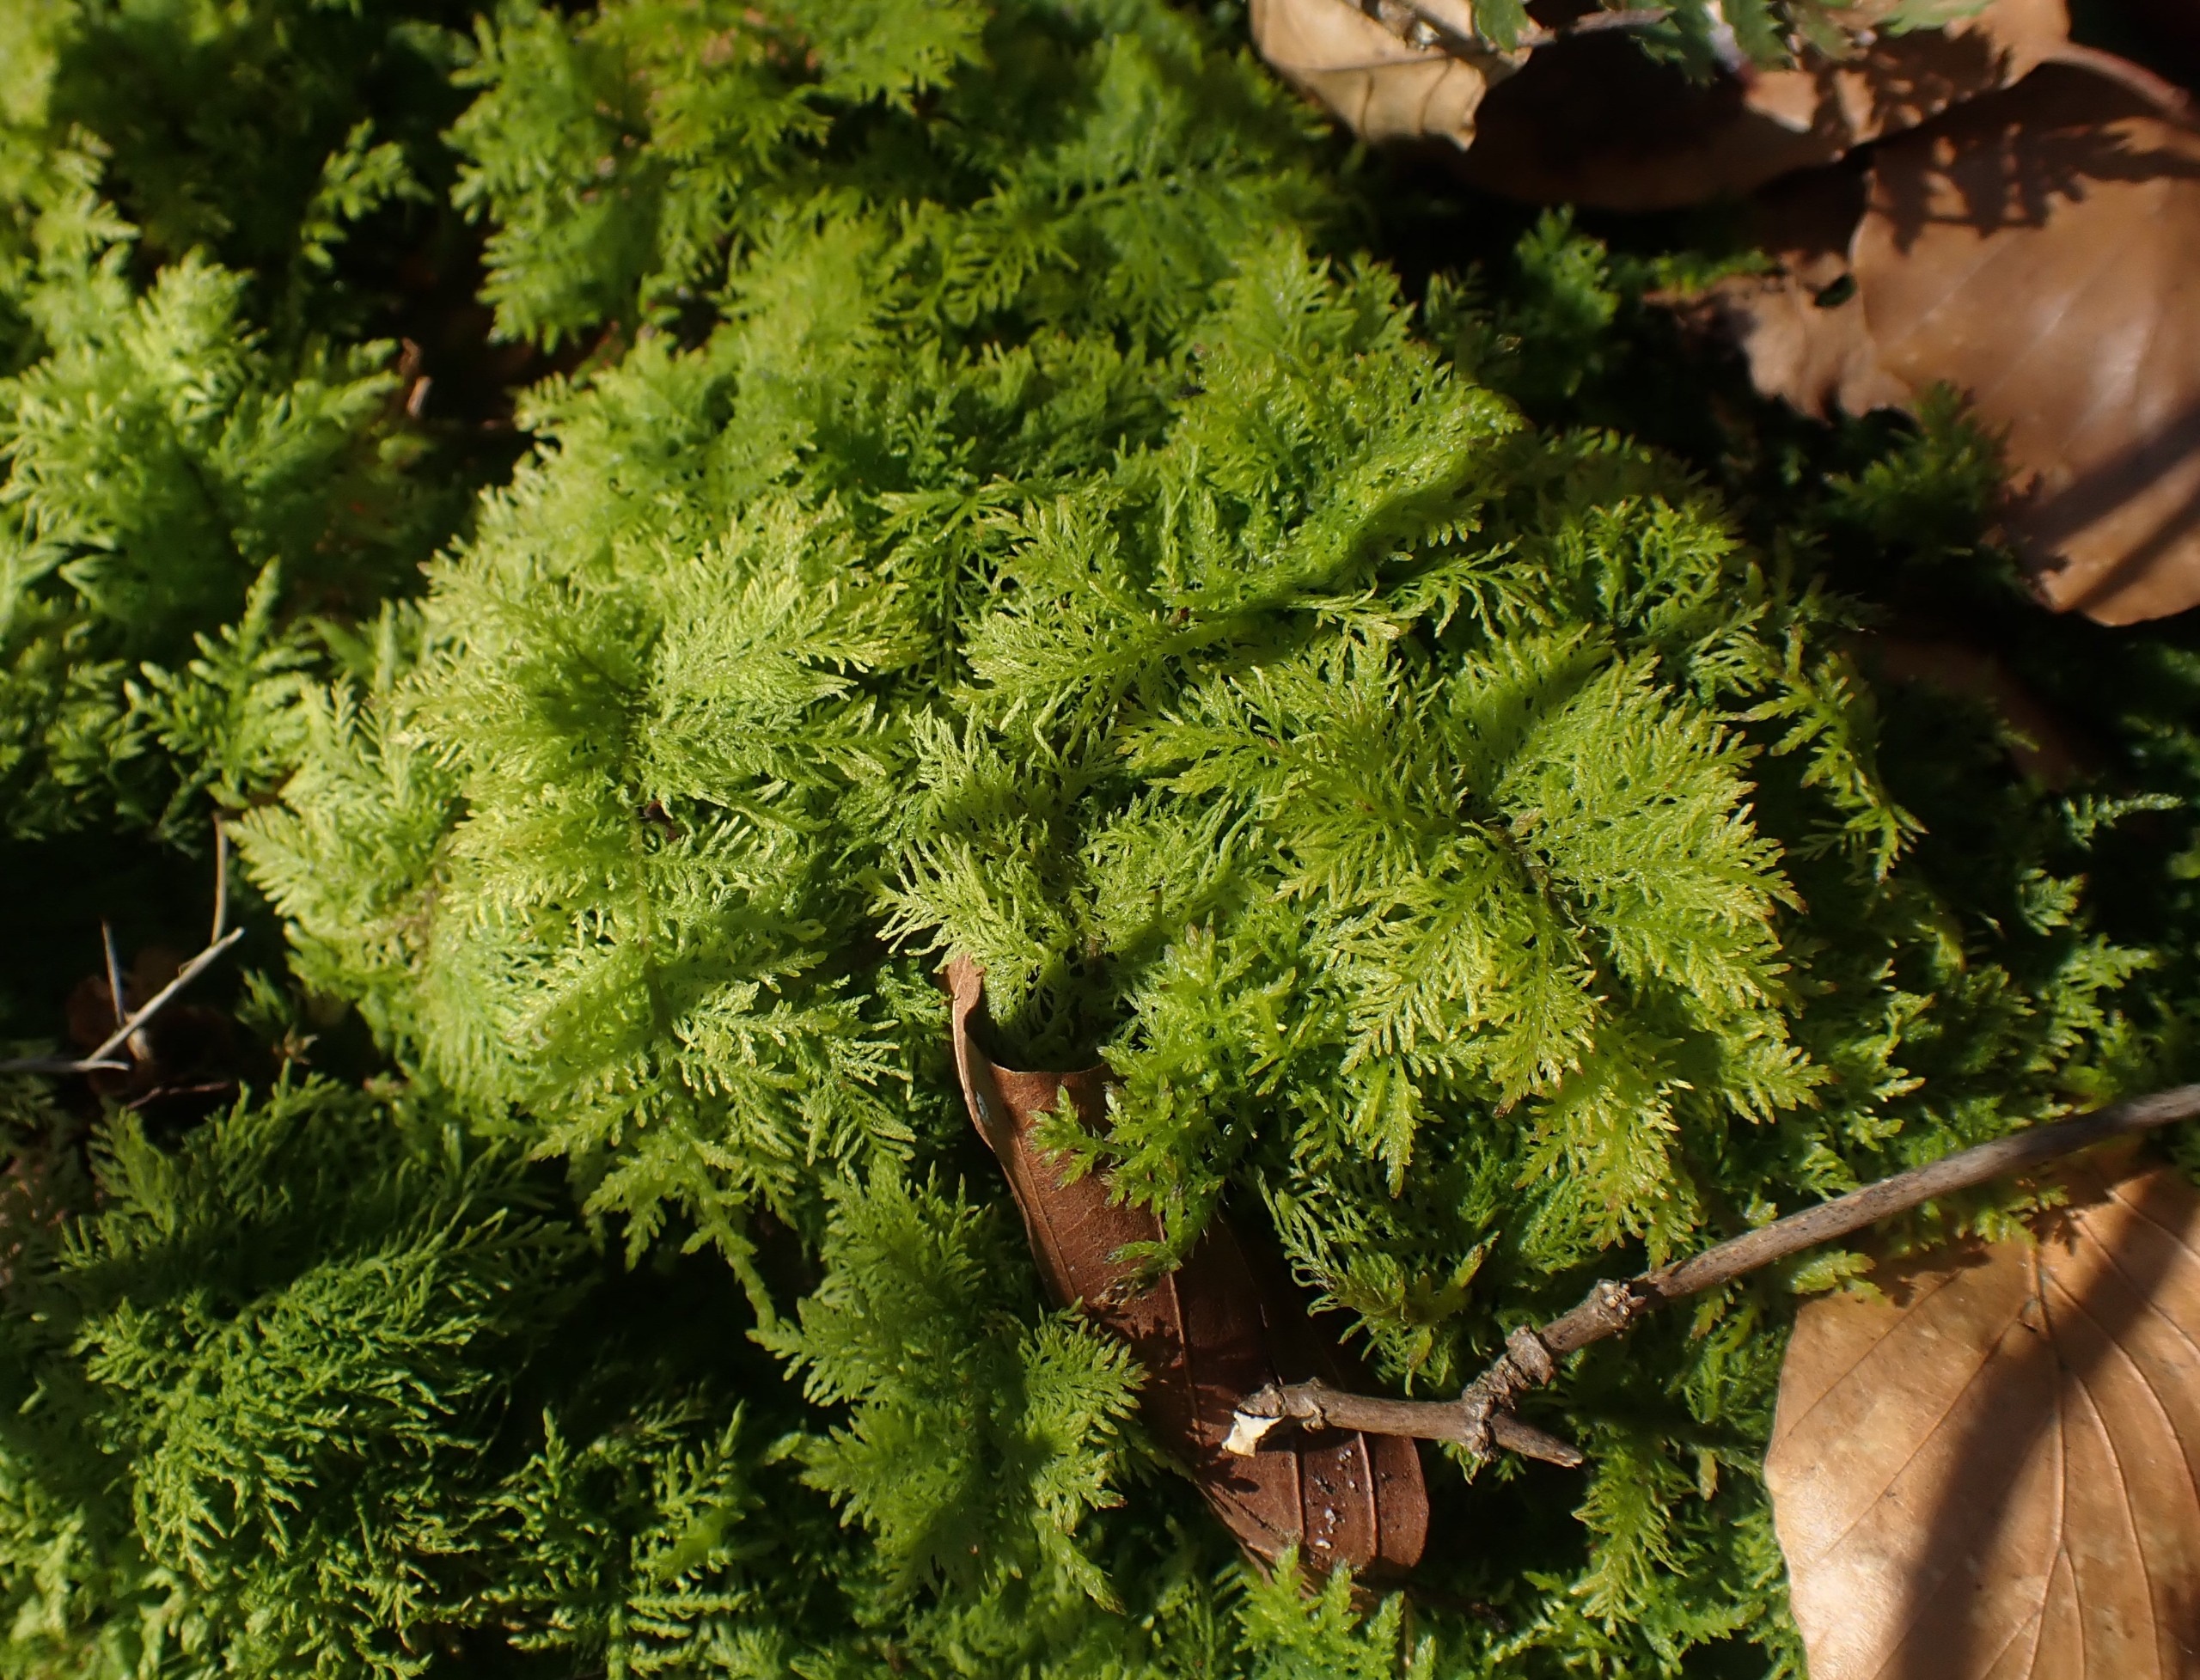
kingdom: Plantae
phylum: Bryophyta
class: Bryopsida
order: Hypnales
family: Thuidiaceae
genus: Thuidium
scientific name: Thuidium tamariscinum
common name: Pryd-bregnemos
